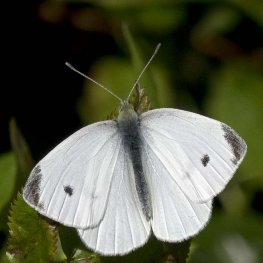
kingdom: Animalia
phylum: Arthropoda
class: Insecta
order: Lepidoptera
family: Pieridae
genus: Pieris
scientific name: Pieris rapae
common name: Cabbage White
